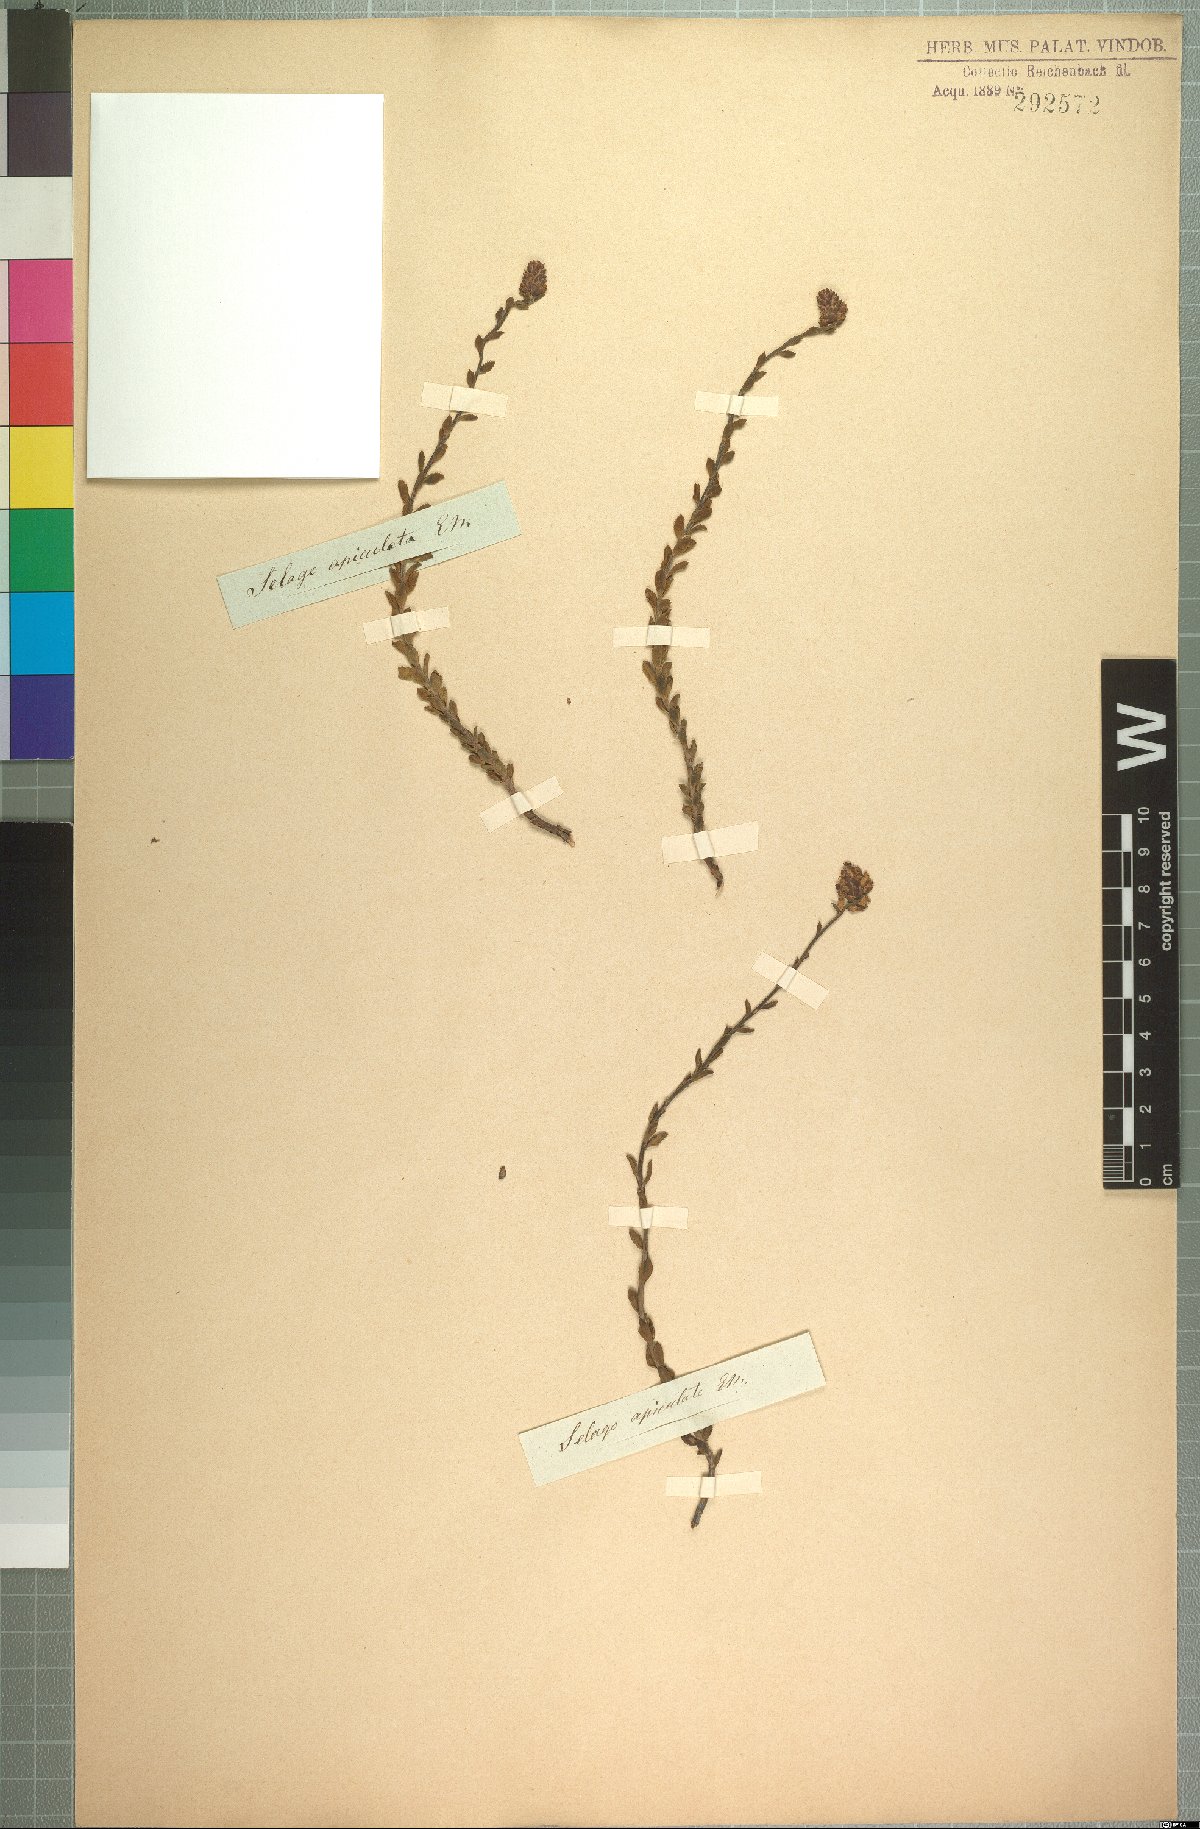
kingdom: Plantae
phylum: Tracheophyta
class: Magnoliopsida
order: Lamiales
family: Scrophulariaceae
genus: Glumicalyx
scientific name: Glumicalyx apiculatus
